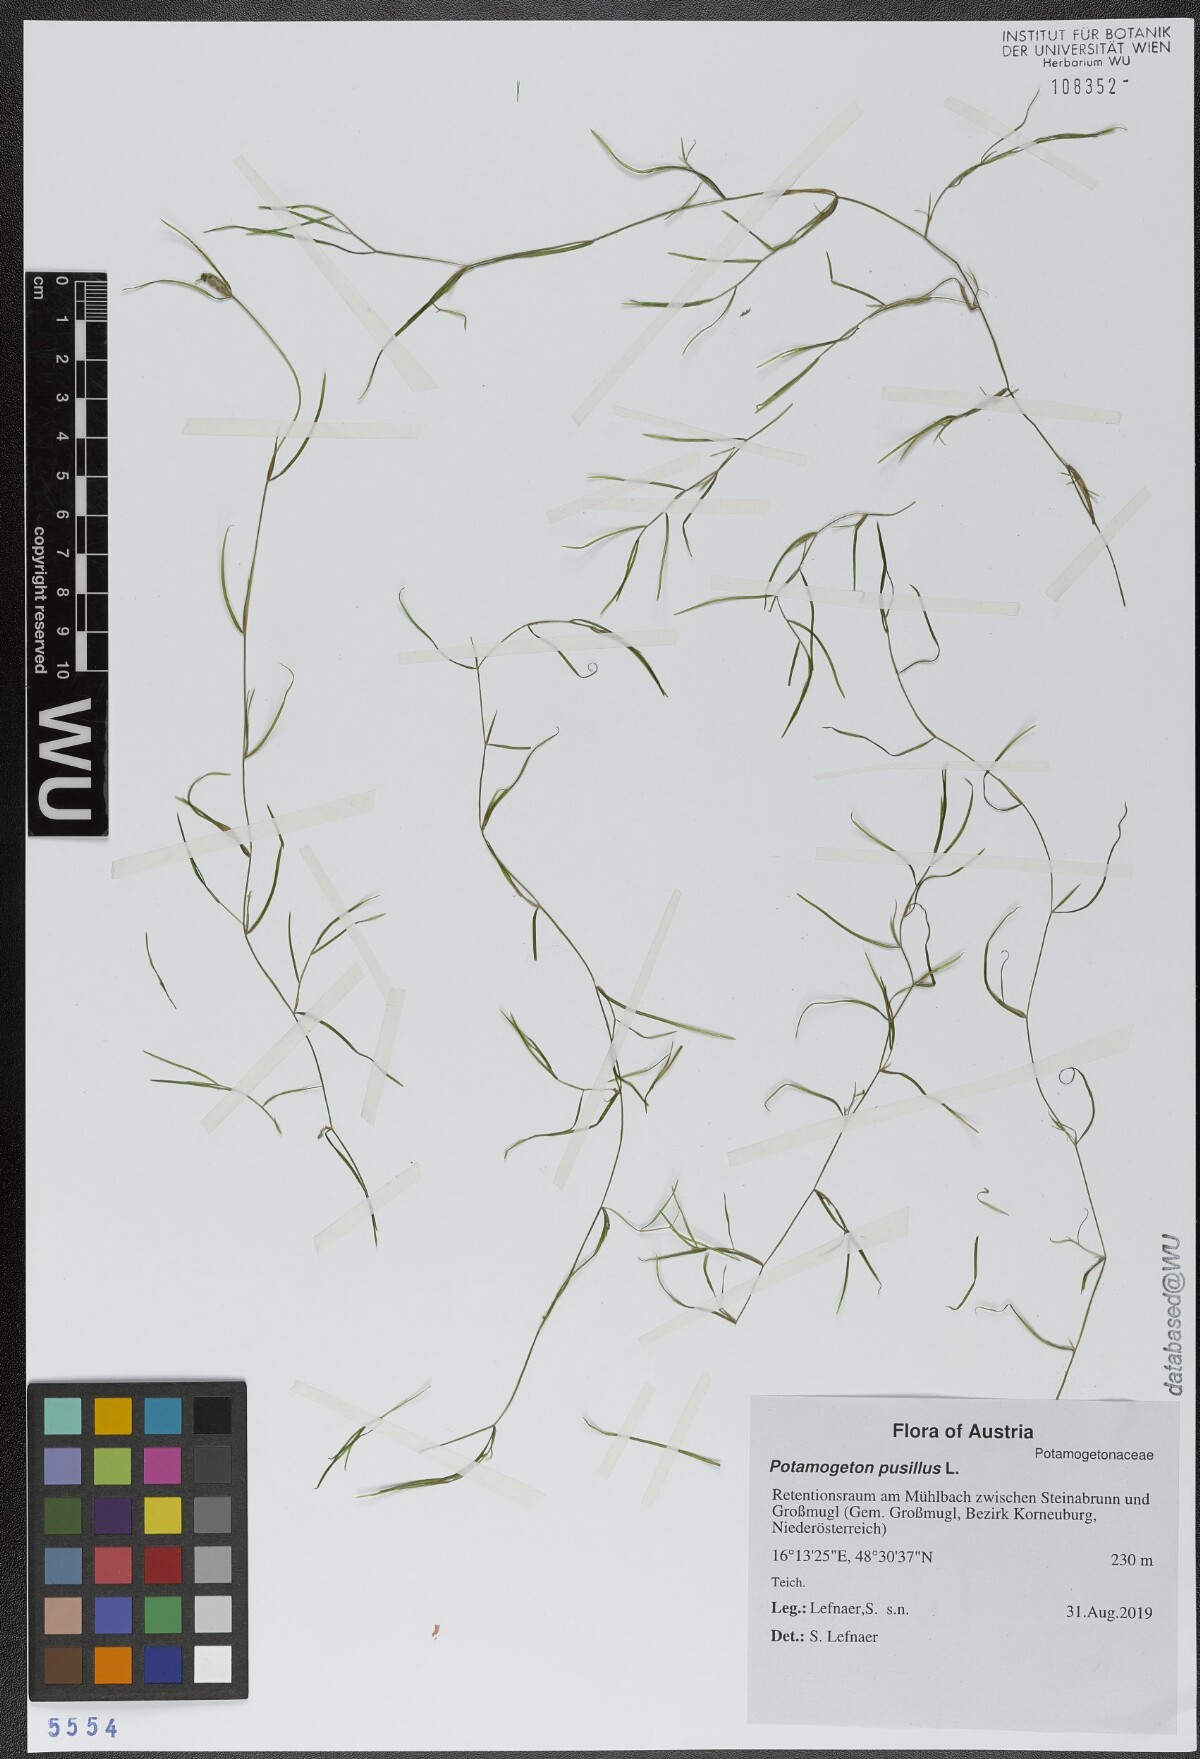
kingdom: Plantae
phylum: Tracheophyta
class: Liliopsida
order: Alismatales
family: Potamogetonaceae
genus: Potamogeton
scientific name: Potamogeton pusillus
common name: Lesser pondweed
